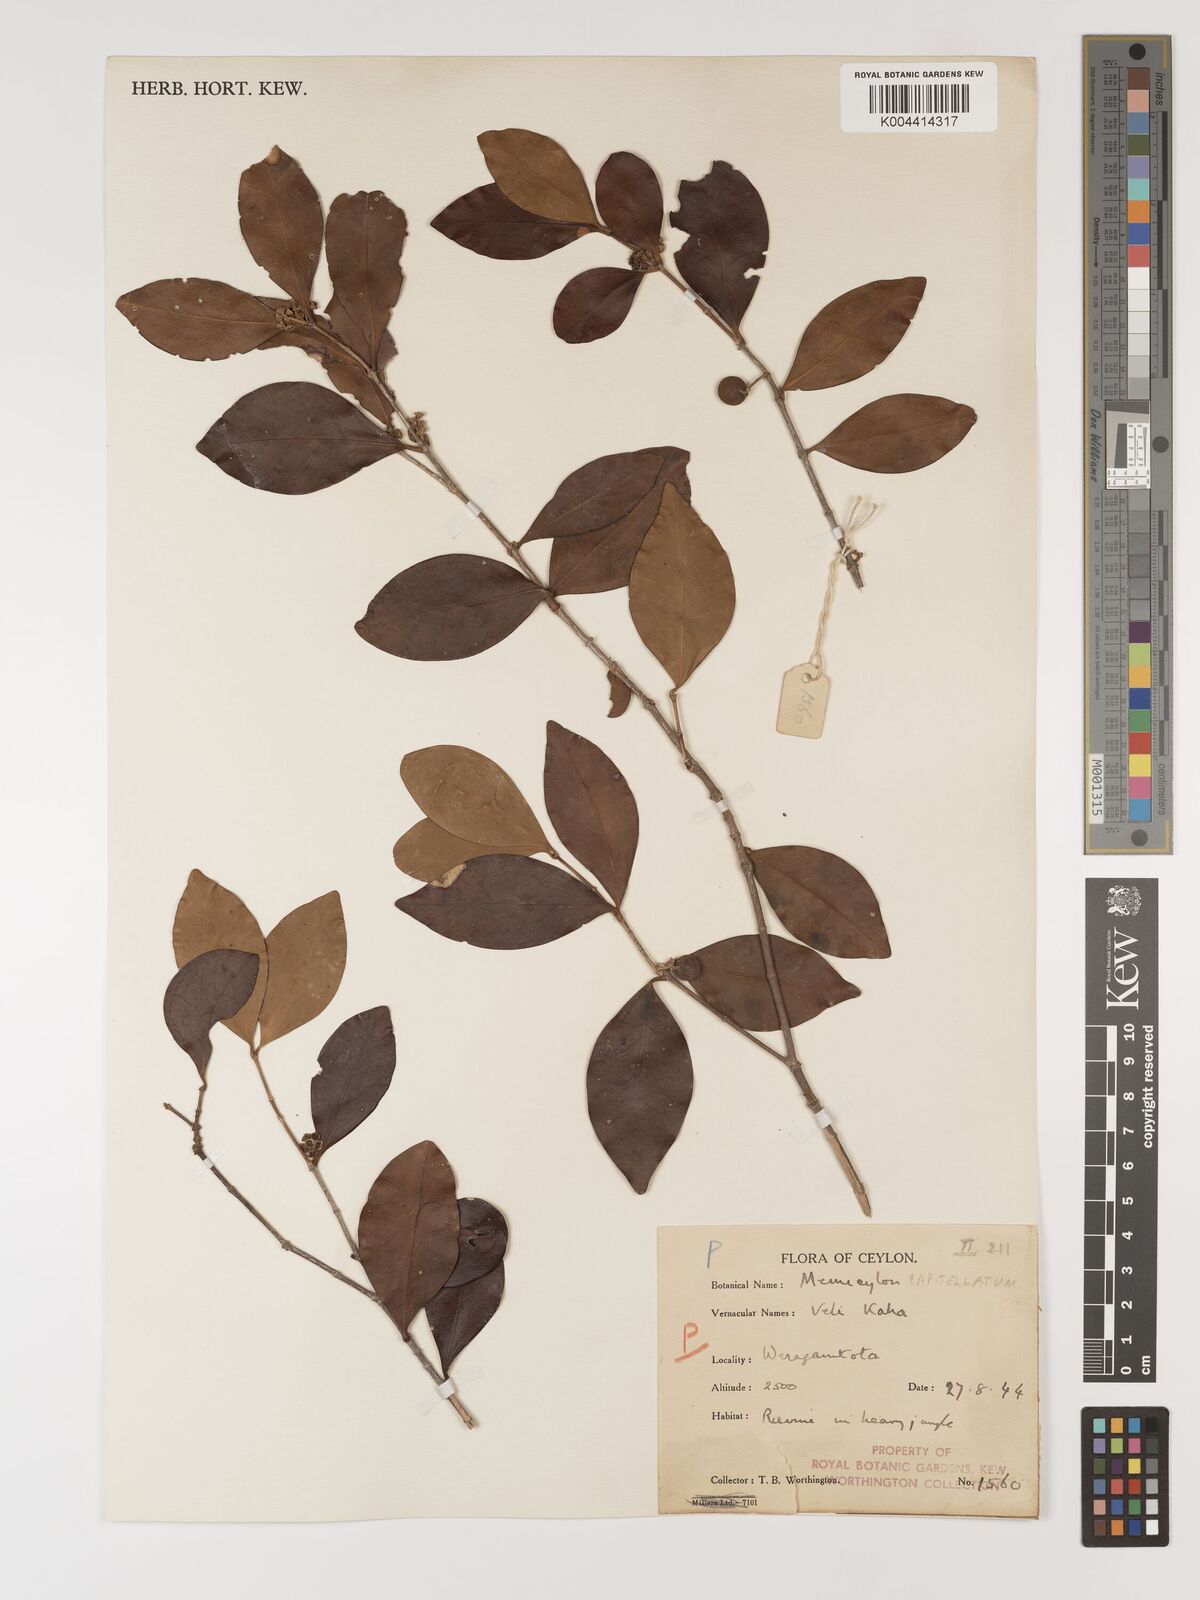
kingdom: Plantae
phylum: Tracheophyta
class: Magnoliopsida
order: Myrtales
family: Melastomataceae
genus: Memecylon
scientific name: Memecylon capitellatum
